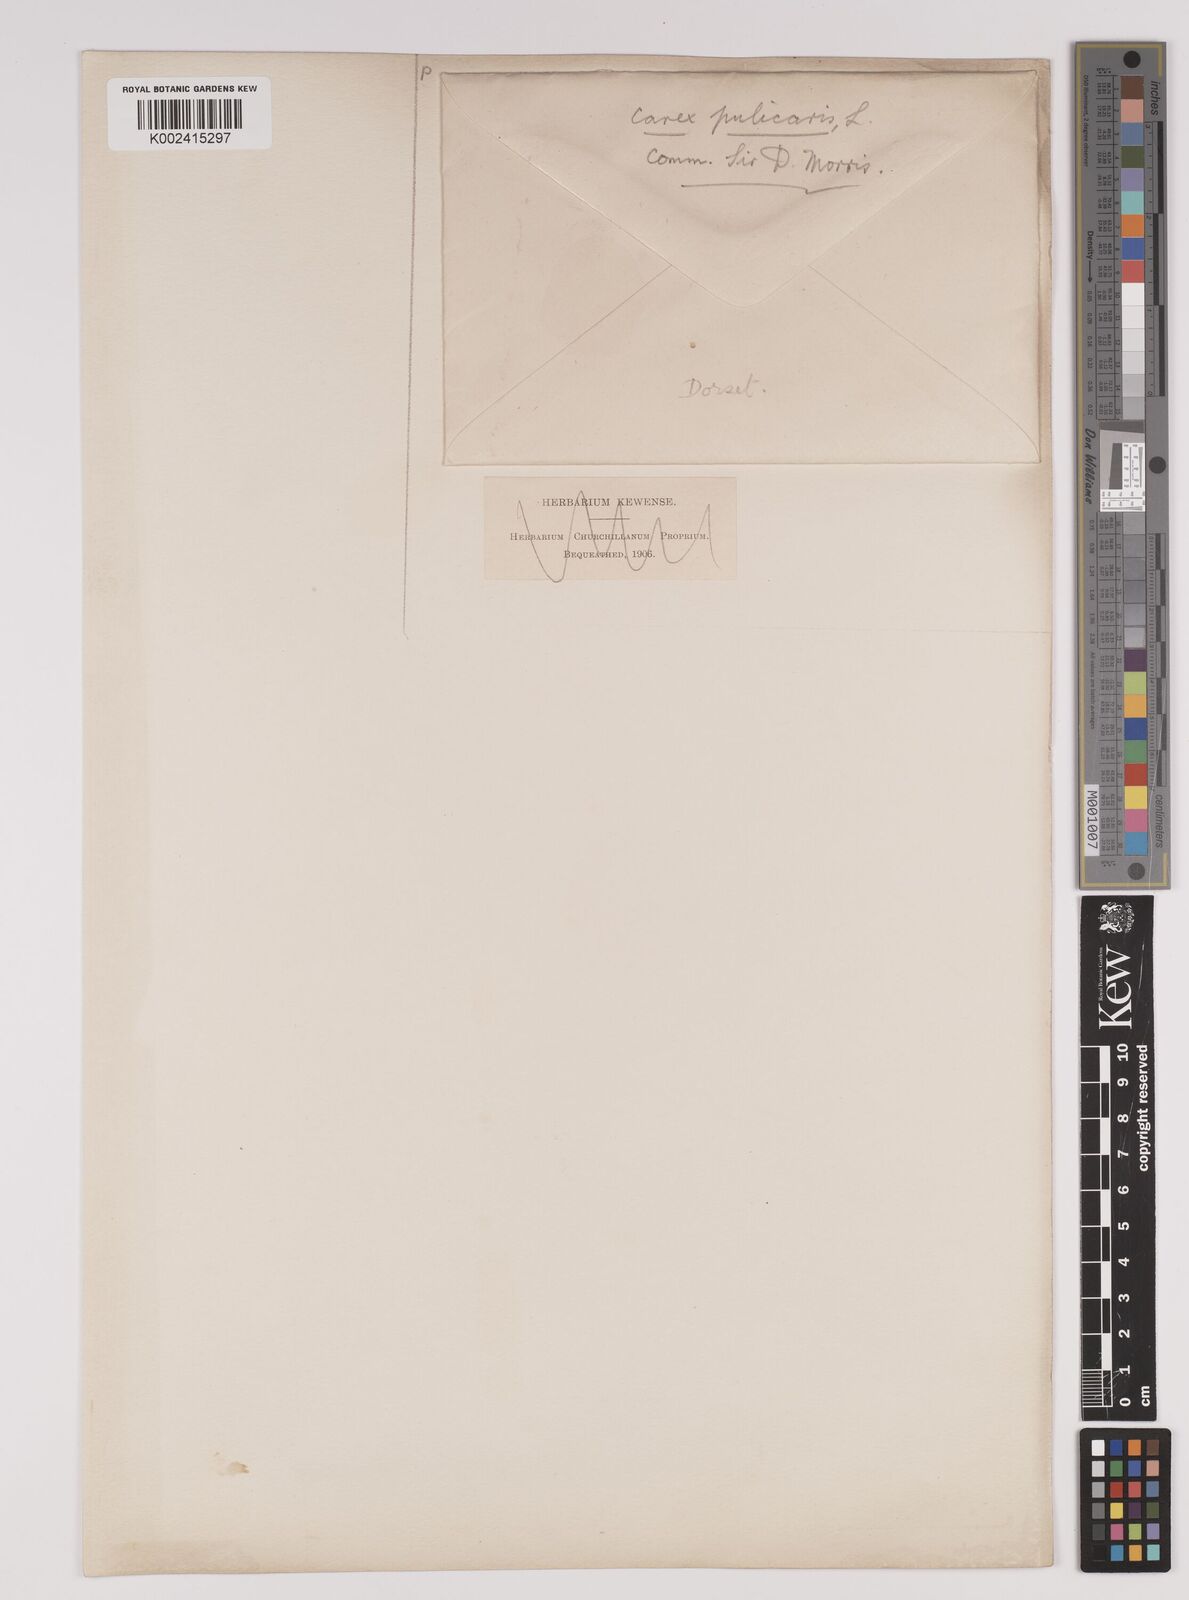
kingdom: Plantae
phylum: Tracheophyta
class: Liliopsida
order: Poales
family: Cyperaceae
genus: Carex
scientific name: Carex pulicaris
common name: Flea sedge
